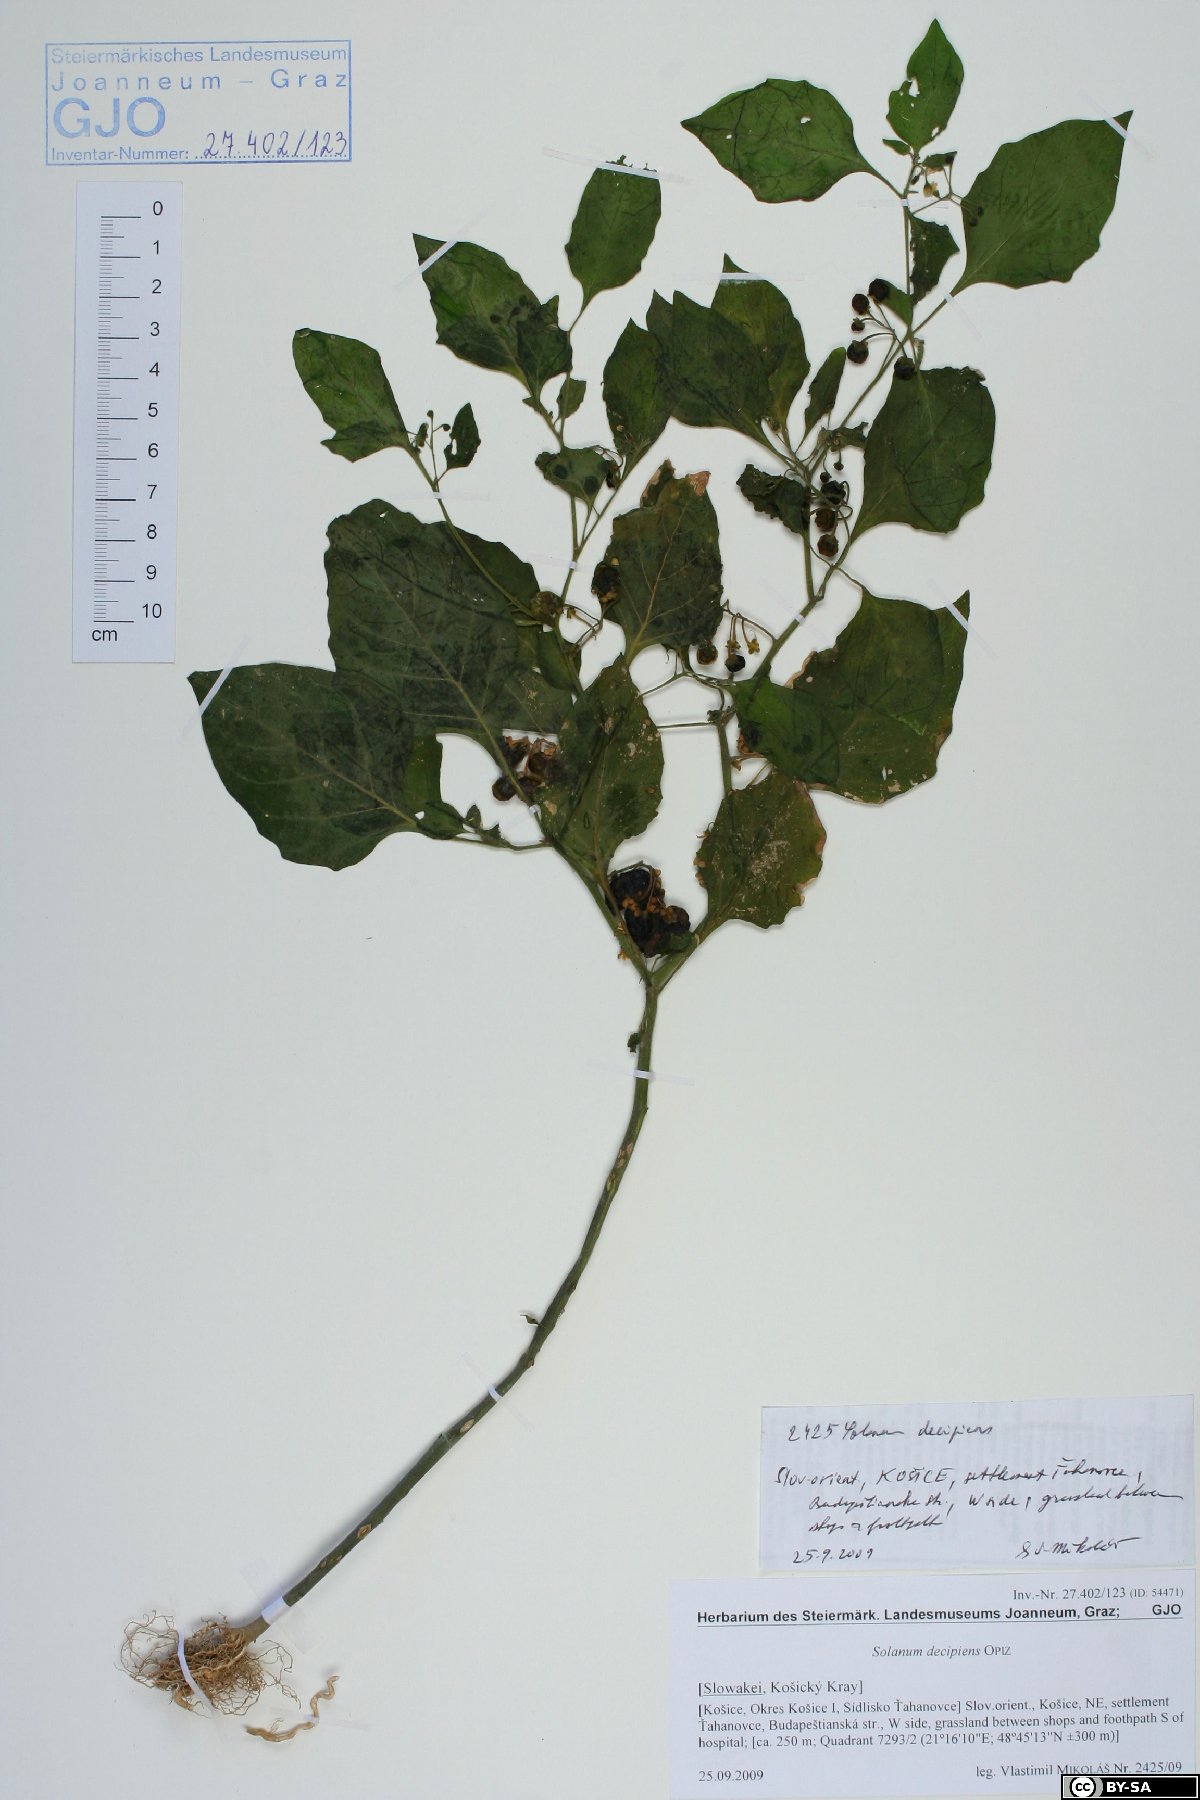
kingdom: Plantae
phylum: Tracheophyta
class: Magnoliopsida
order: Solanales
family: Solanaceae
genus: Solanum
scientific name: Solanum decipiens
